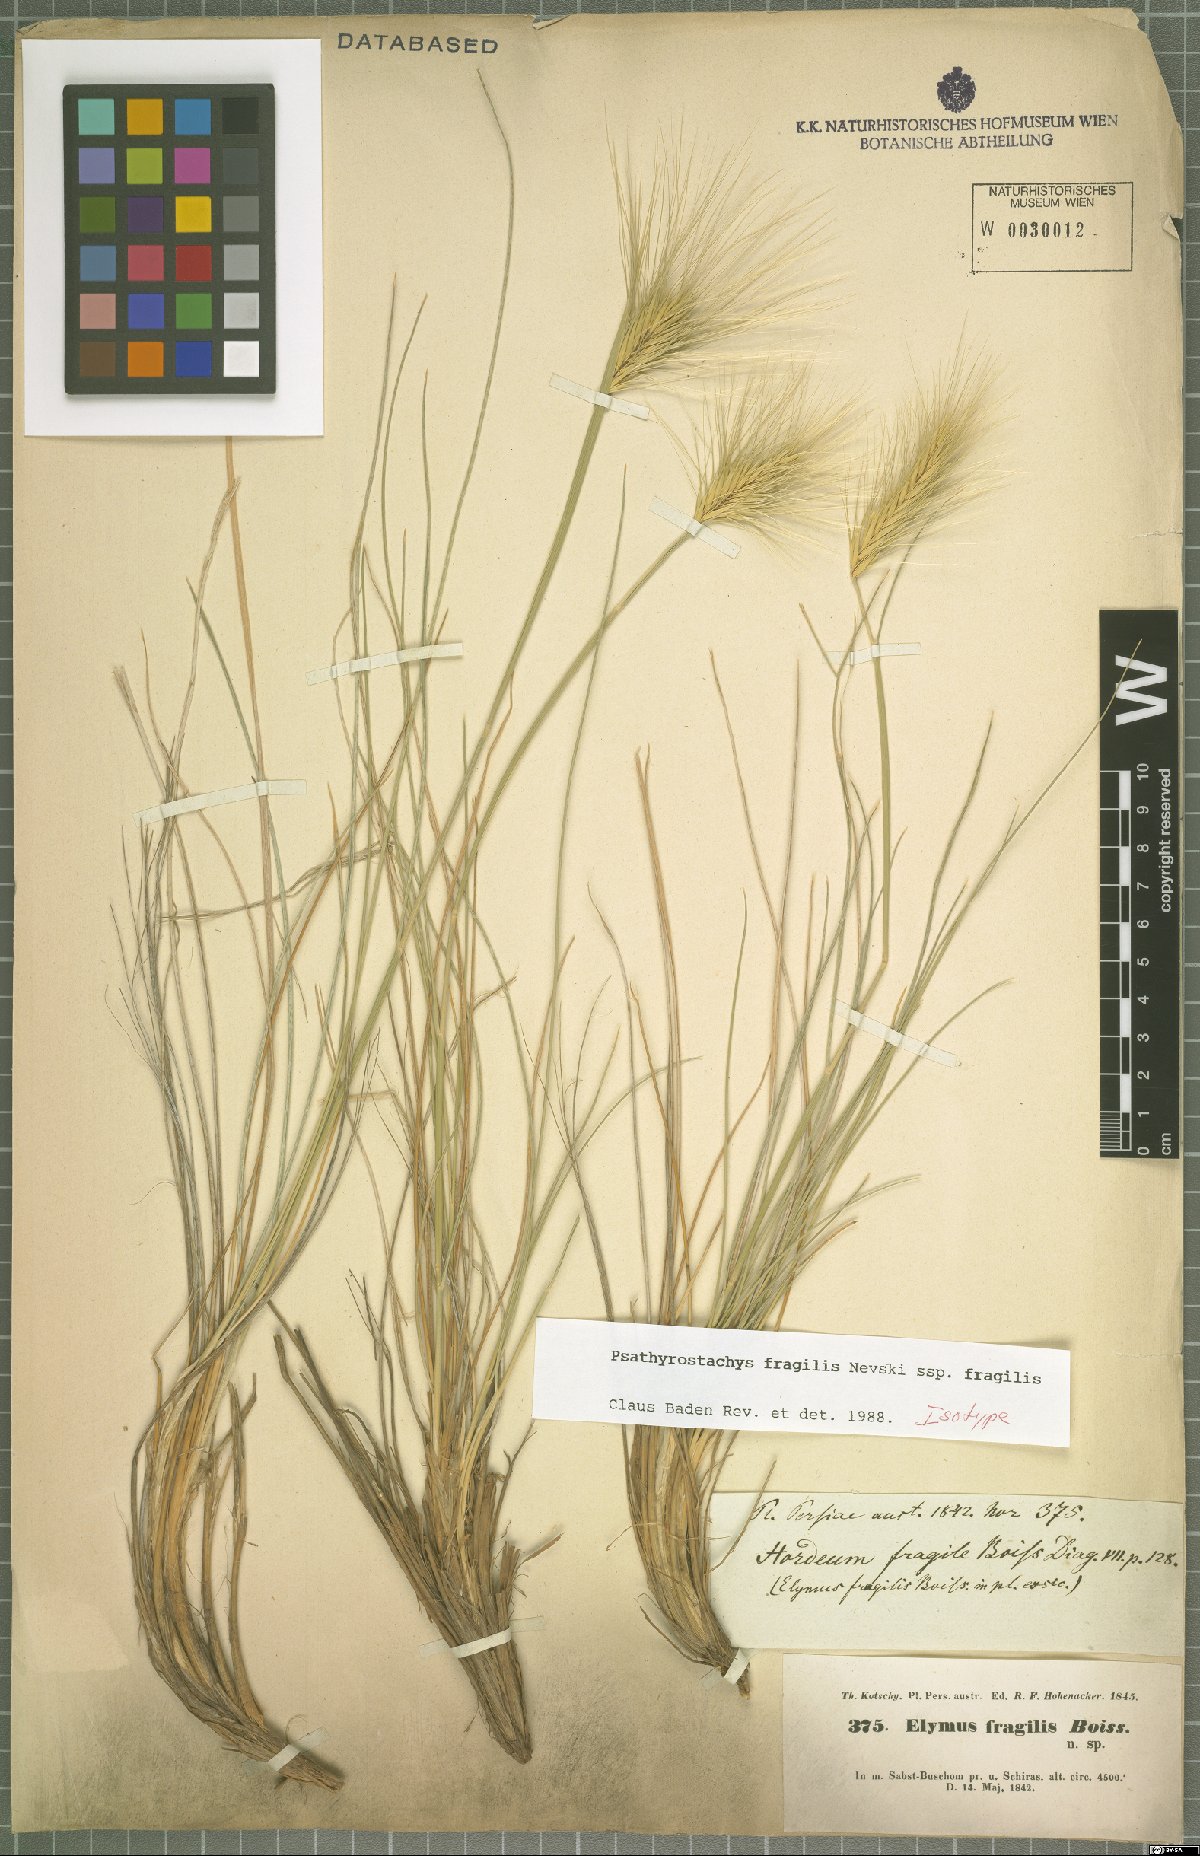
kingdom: Plantae
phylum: Tracheophyta
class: Liliopsida
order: Poales
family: Poaceae
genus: Psathyrostachys
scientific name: Psathyrostachys fragilis
